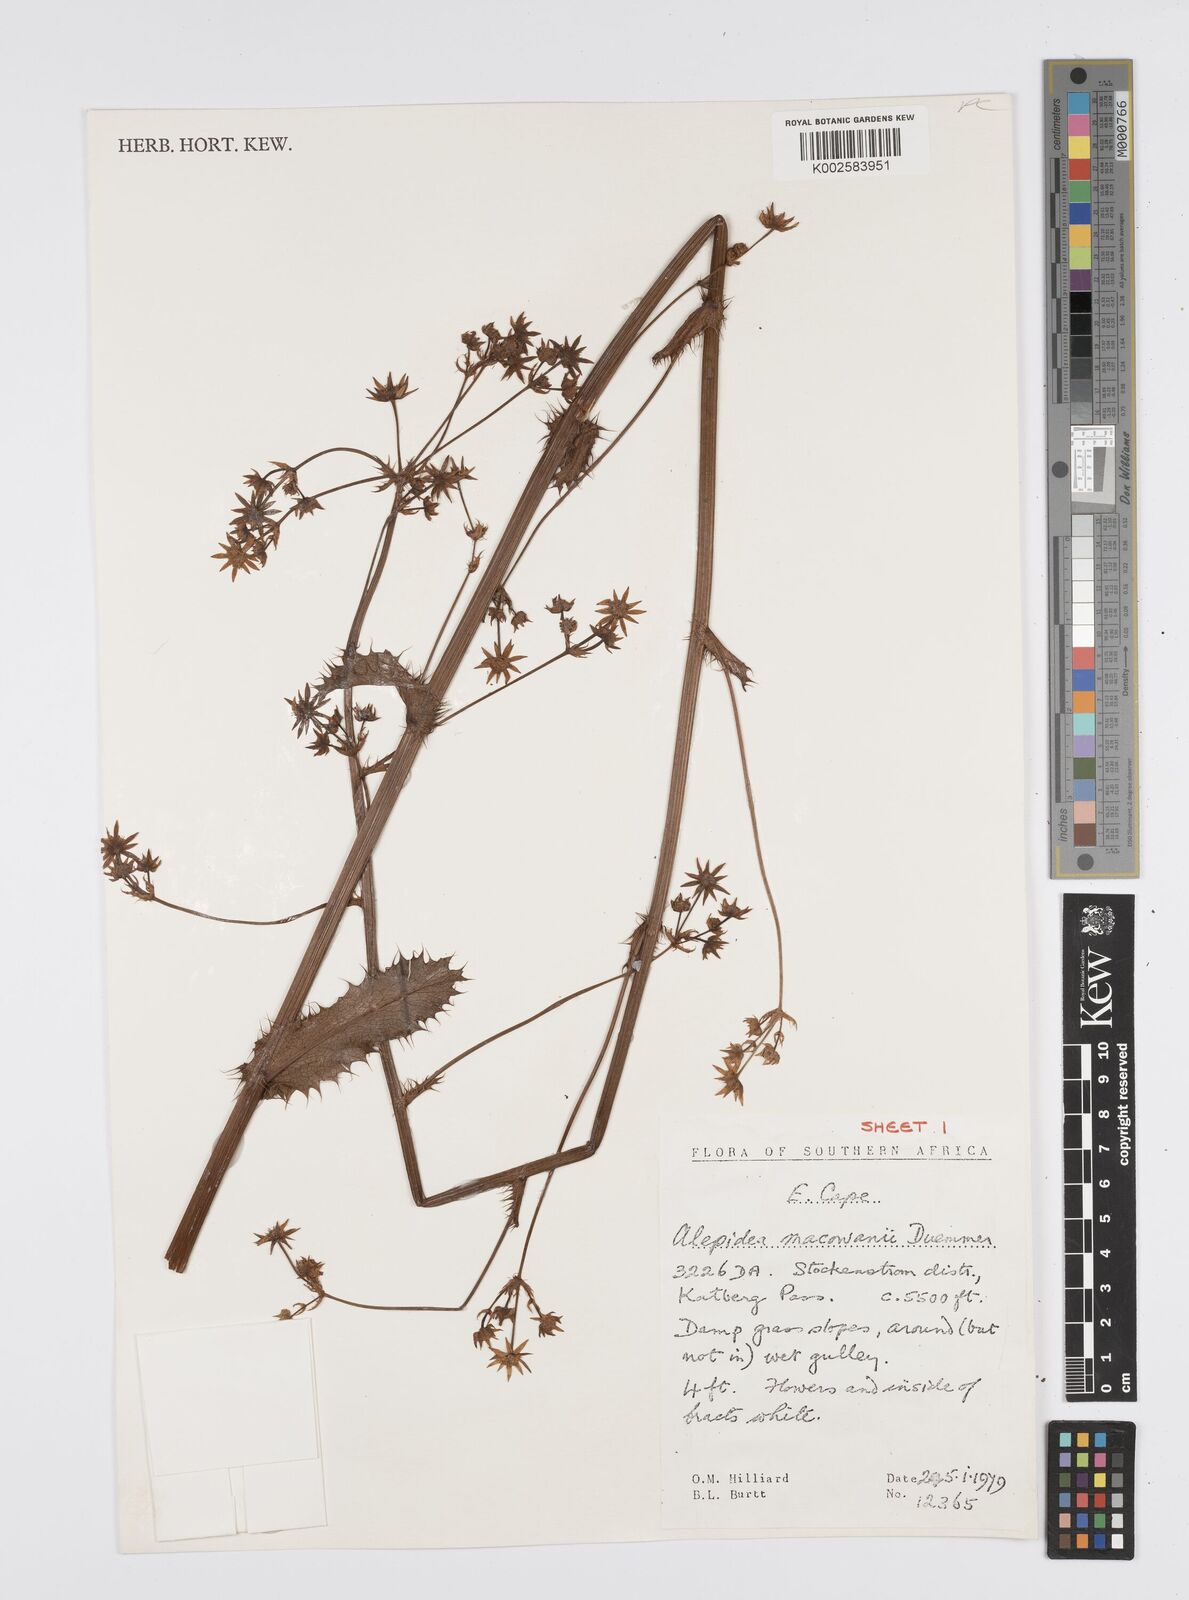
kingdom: Plantae
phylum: Tracheophyta
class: Magnoliopsida
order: Apiales
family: Apiaceae
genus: Alepidea
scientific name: Alepidea macowanii
